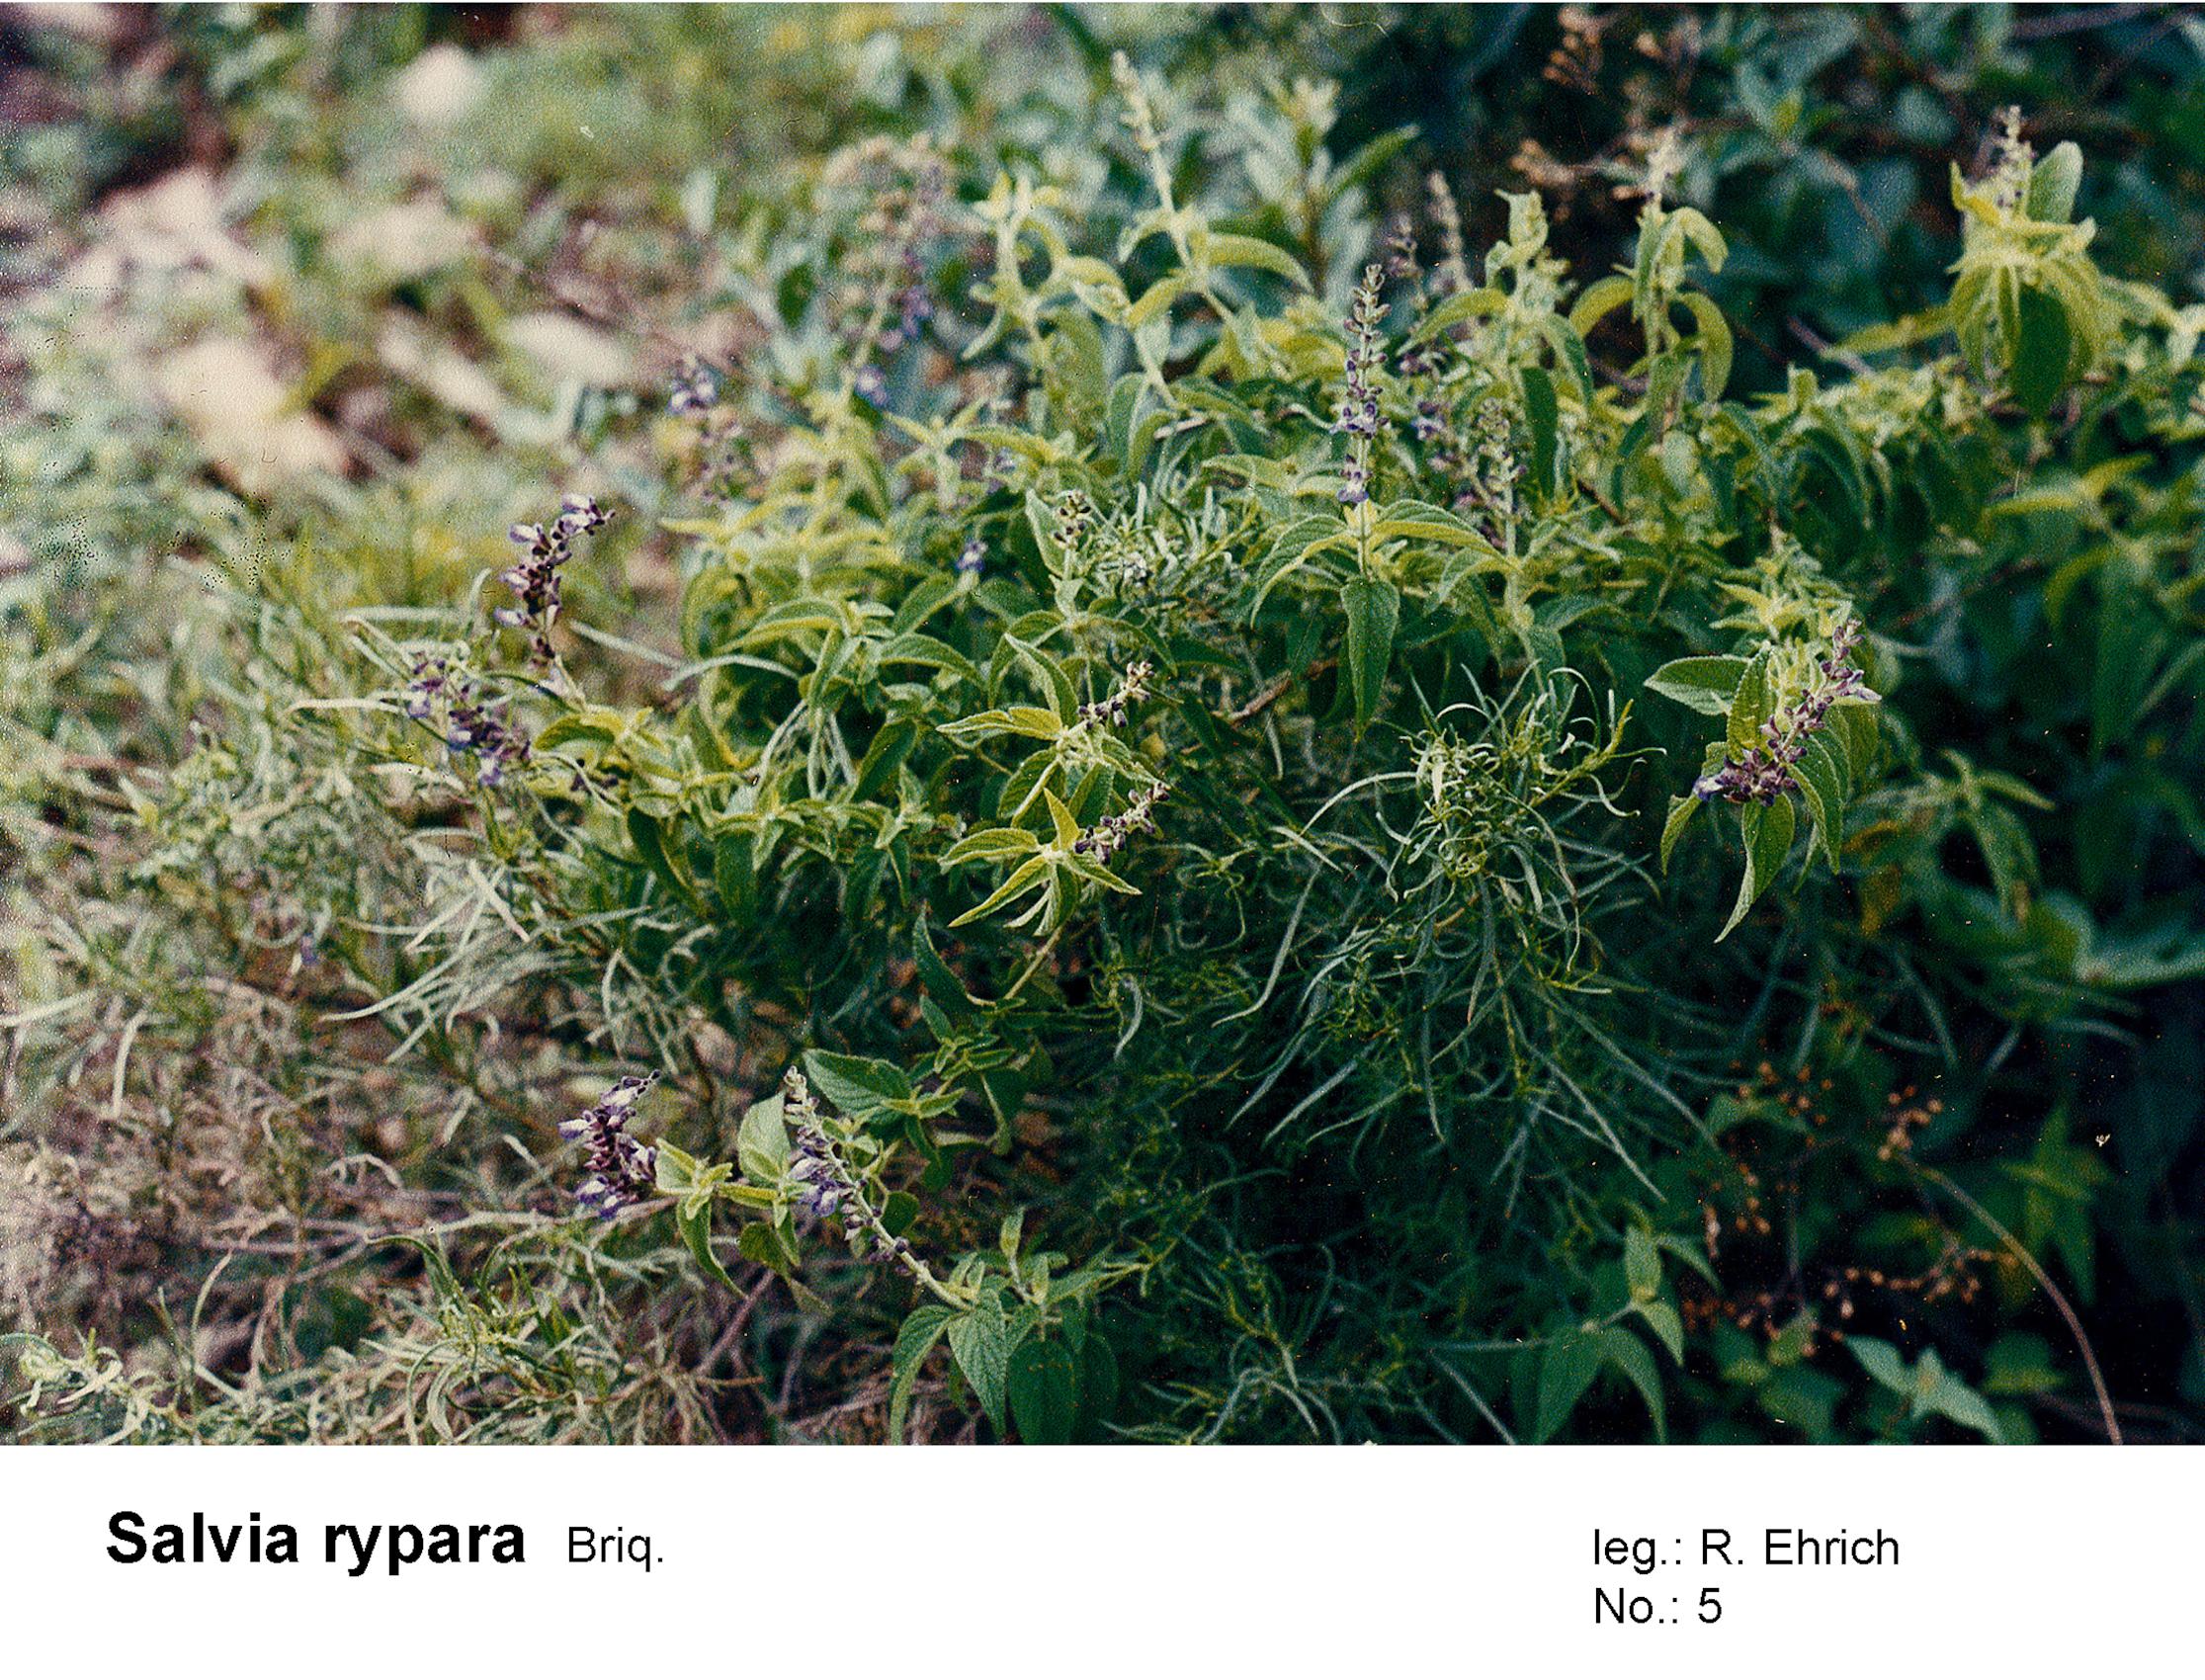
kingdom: Plantae
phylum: Tracheophyta
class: Magnoliopsida
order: Lamiales
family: Lamiaceae
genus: Salvia
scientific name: Salvia rypara
